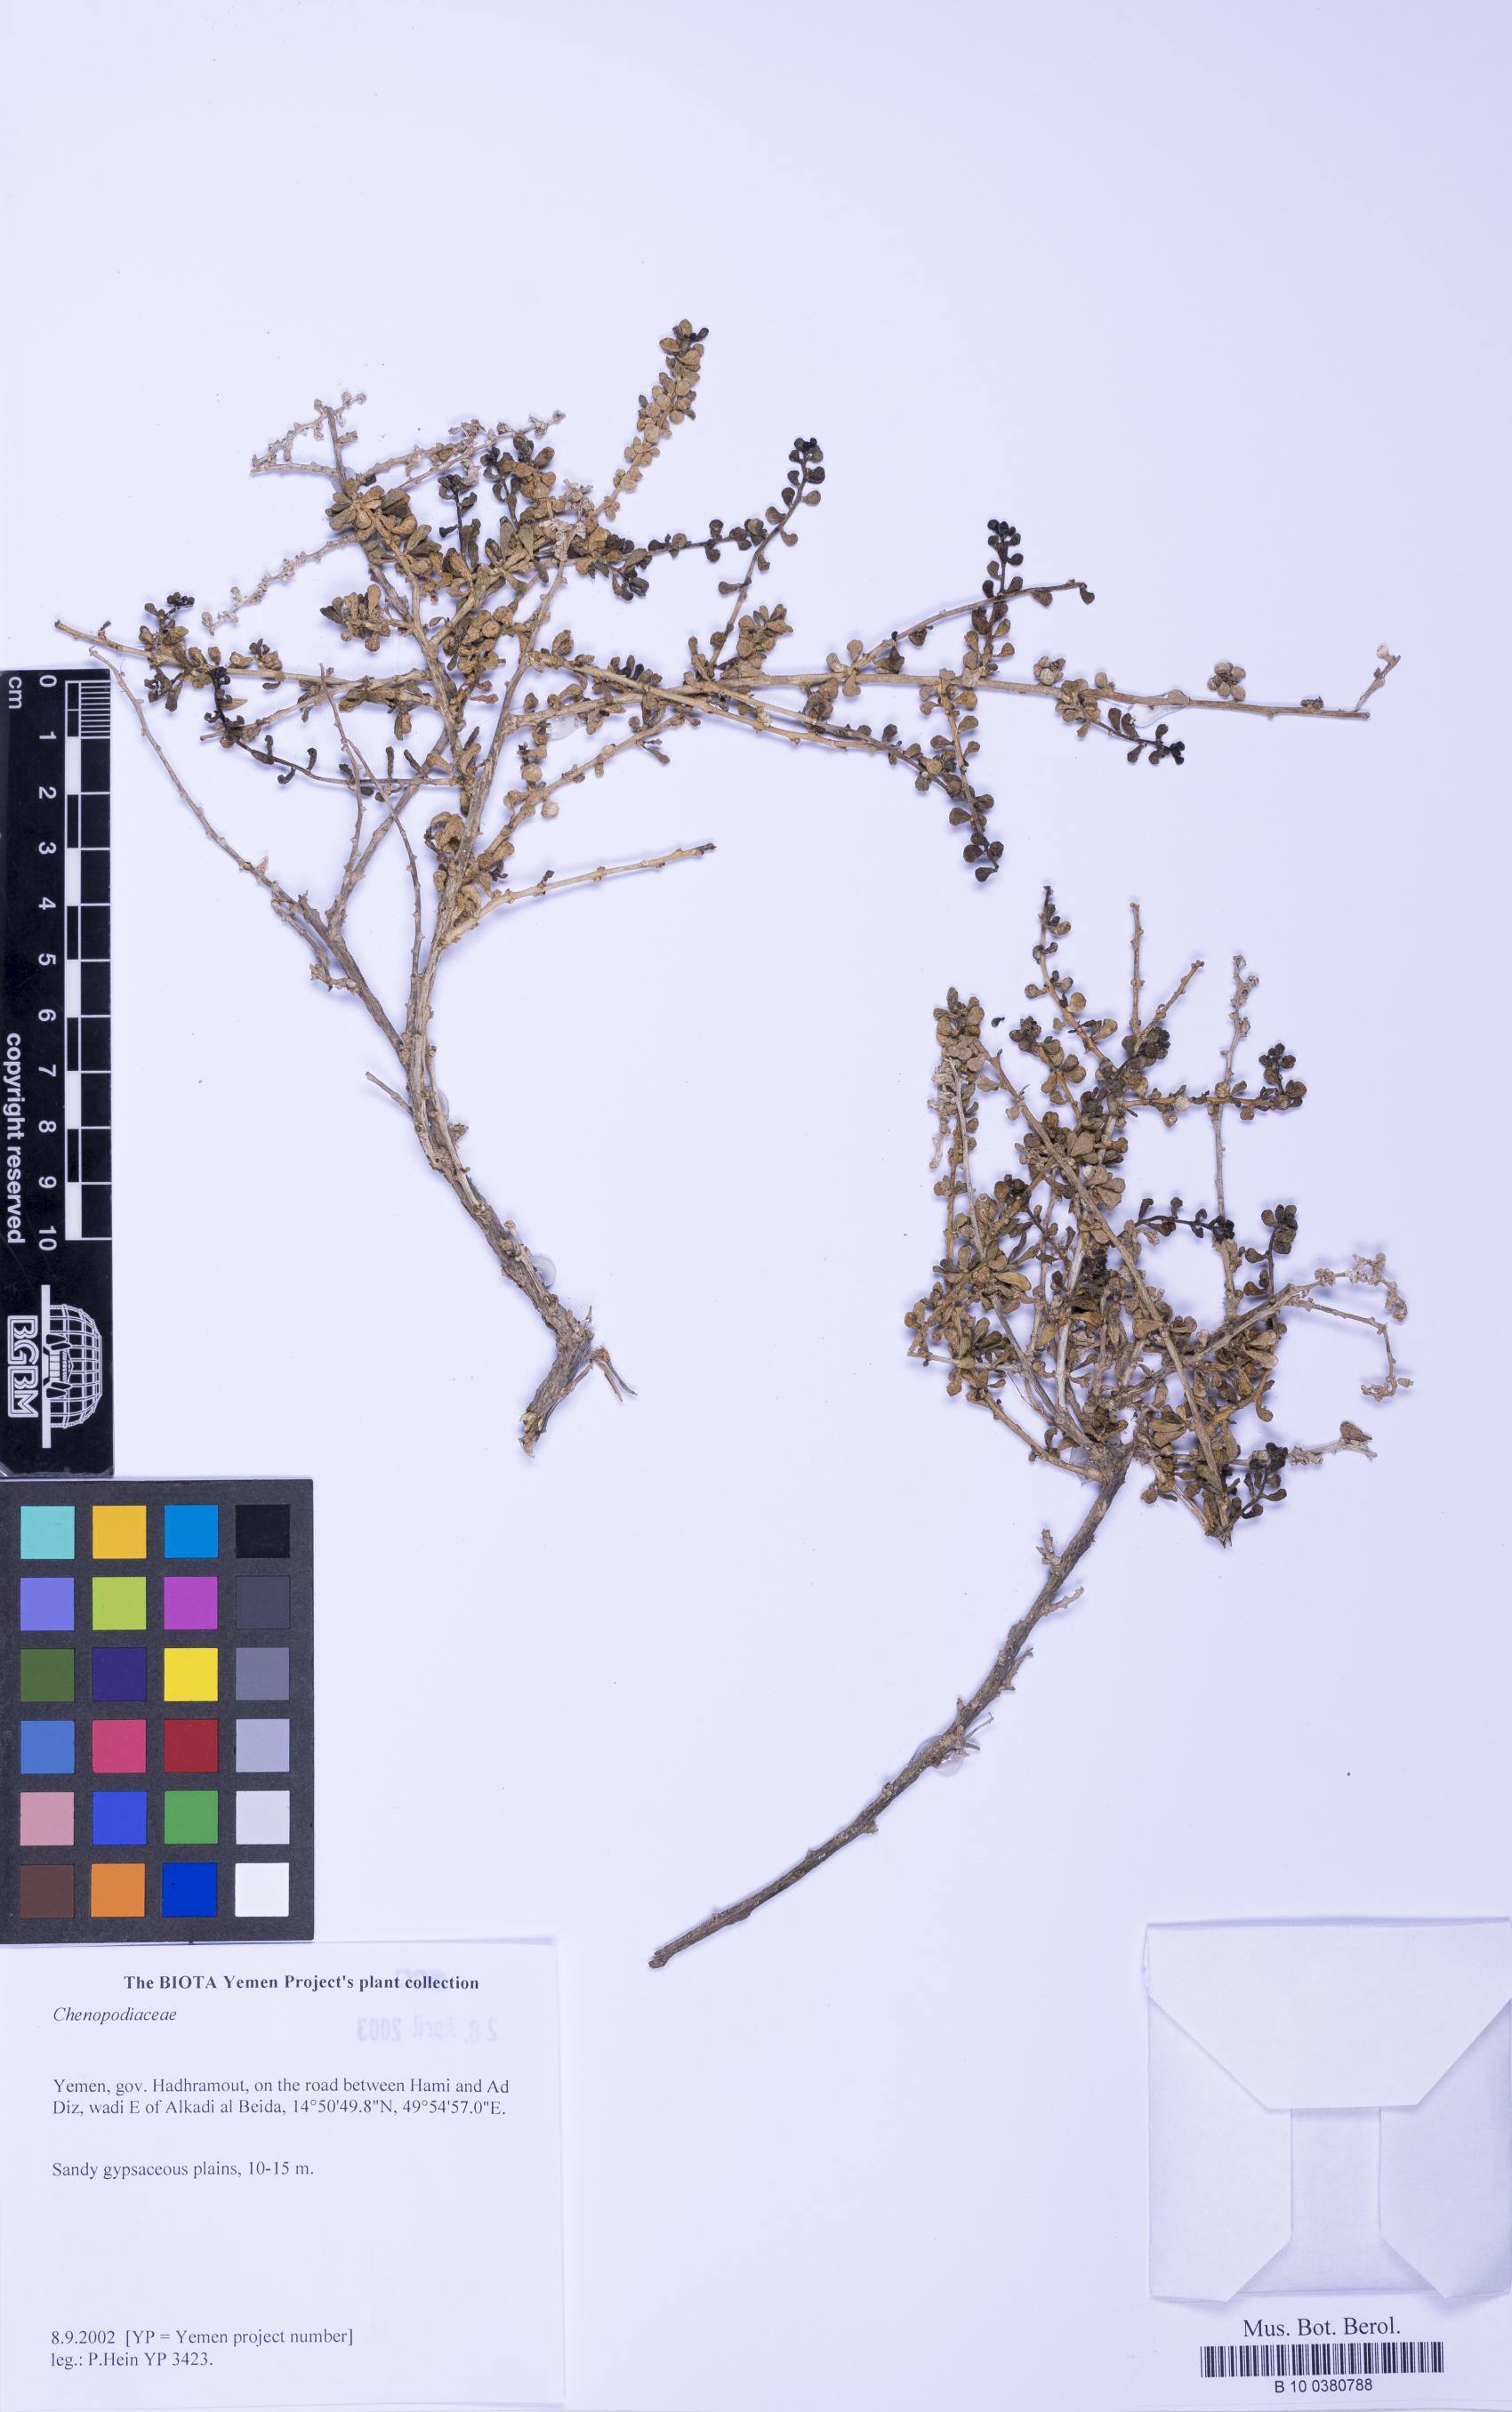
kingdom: Plantae
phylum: Tracheophyta
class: Magnoliopsida
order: Caryophyllales
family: Amaranthaceae
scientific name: Amaranthaceae
